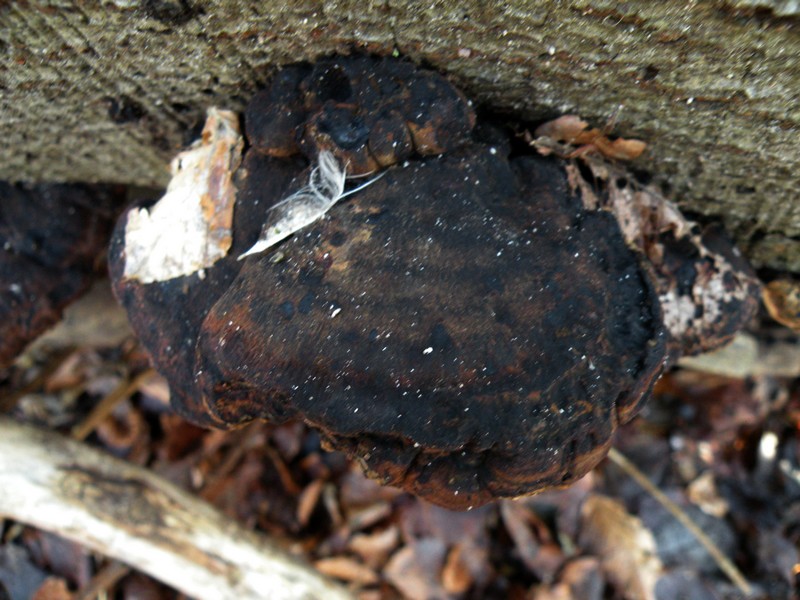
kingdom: Fungi
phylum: Basidiomycota
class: Agaricomycetes
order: Polyporales
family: Ischnodermataceae
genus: Ischnoderma
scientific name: Ischnoderma resinosum
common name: løv-tjæreporesvamp
